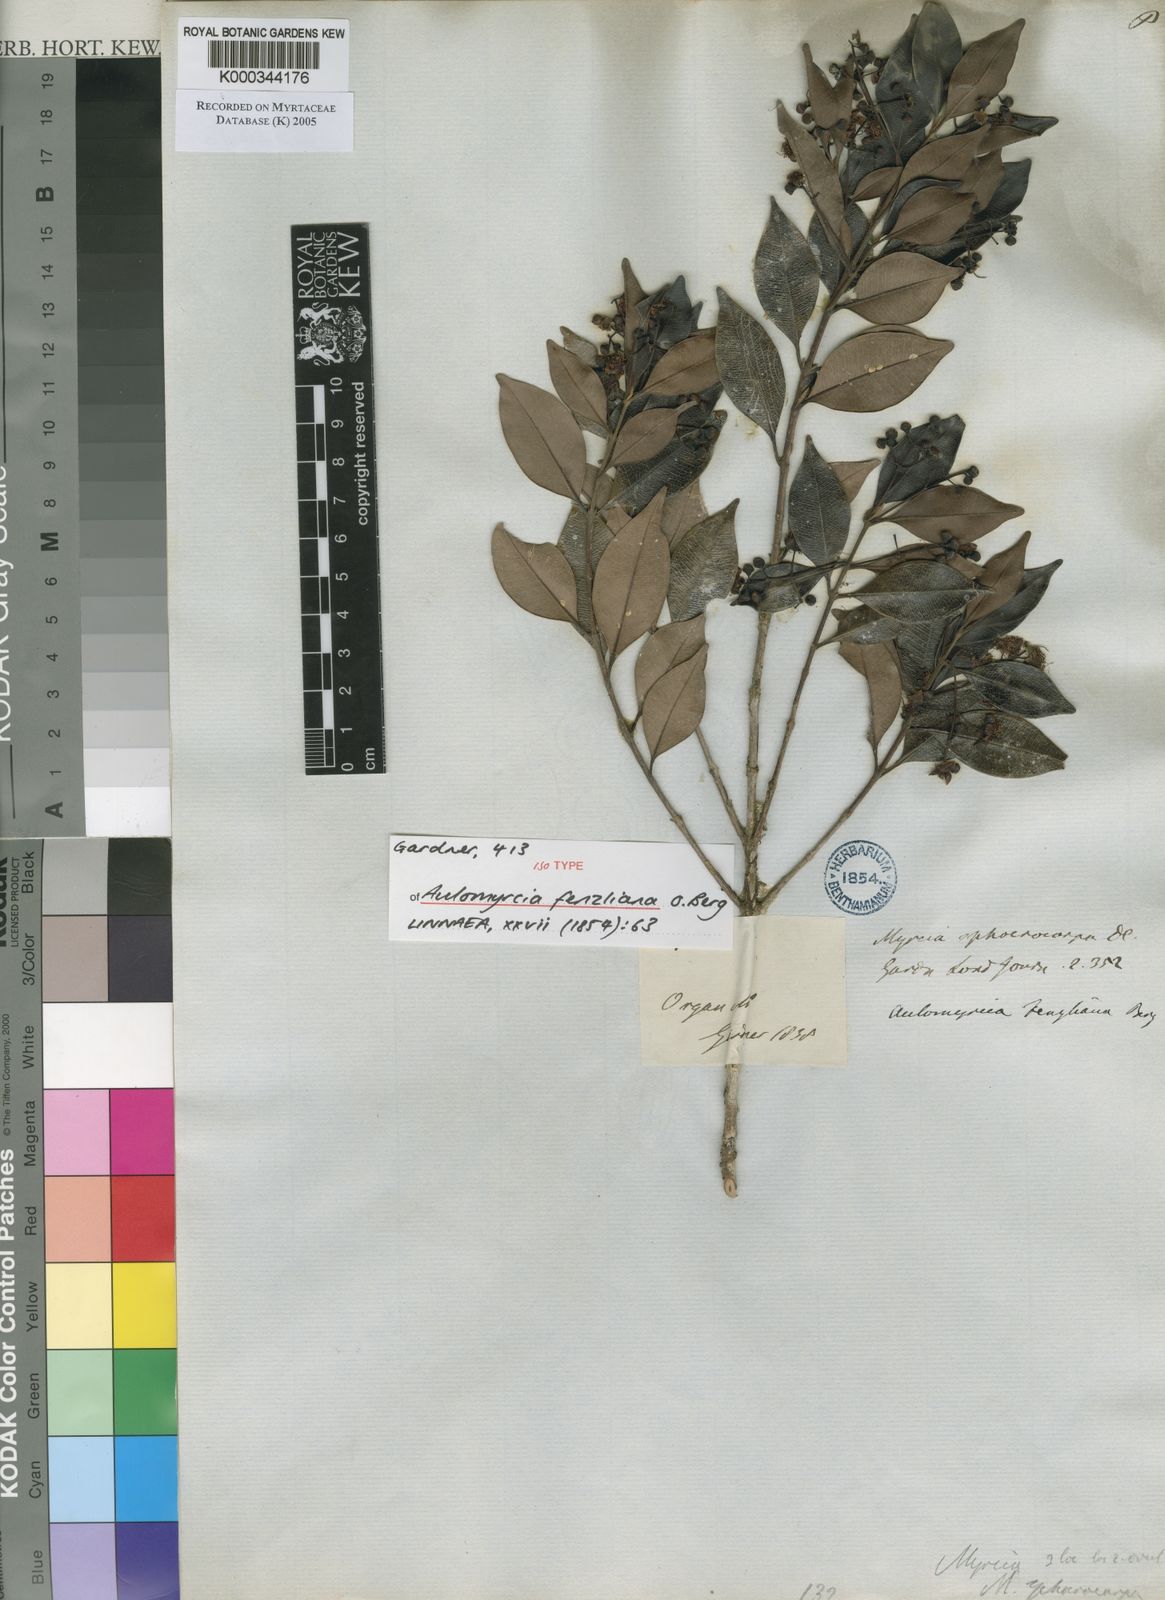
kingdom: Plantae
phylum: Tracheophyta
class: Magnoliopsida
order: Myrtales
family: Myrtaceae
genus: Myrcia
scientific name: Myrcia oligantha
